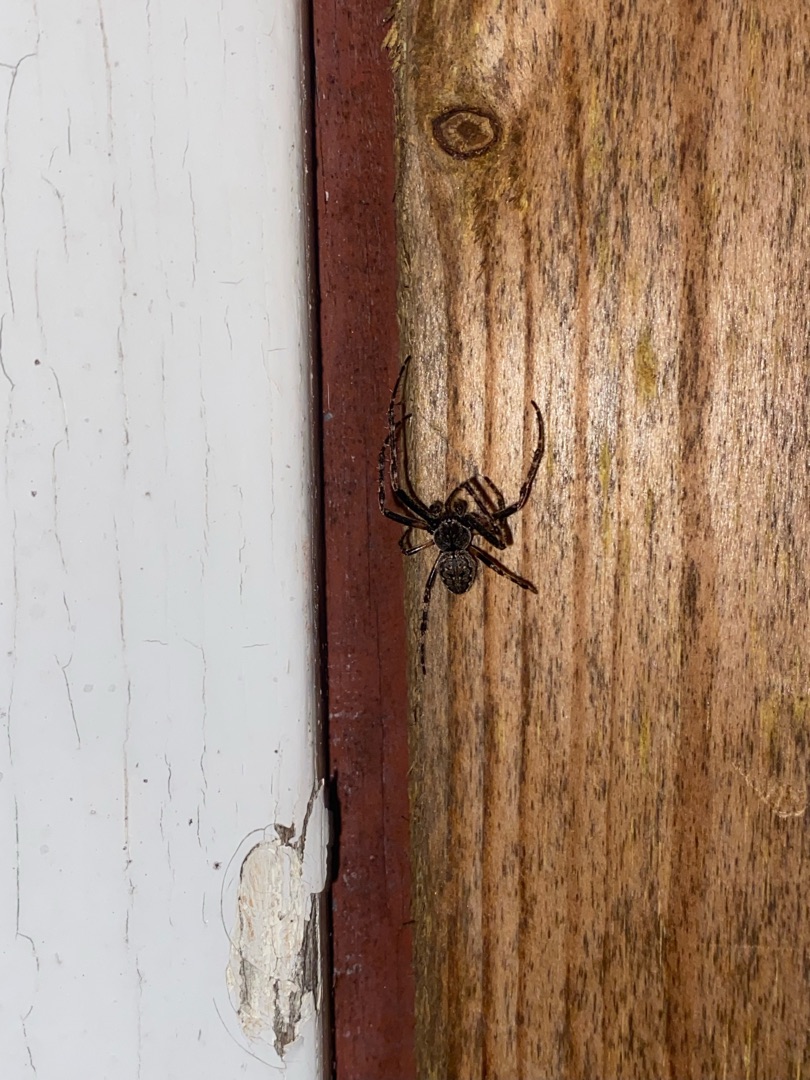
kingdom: Animalia
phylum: Arthropoda
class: Arachnida
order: Araneae
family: Araneidae
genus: Nuctenea
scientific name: Nuctenea umbratica
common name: Flad hjulspinder
